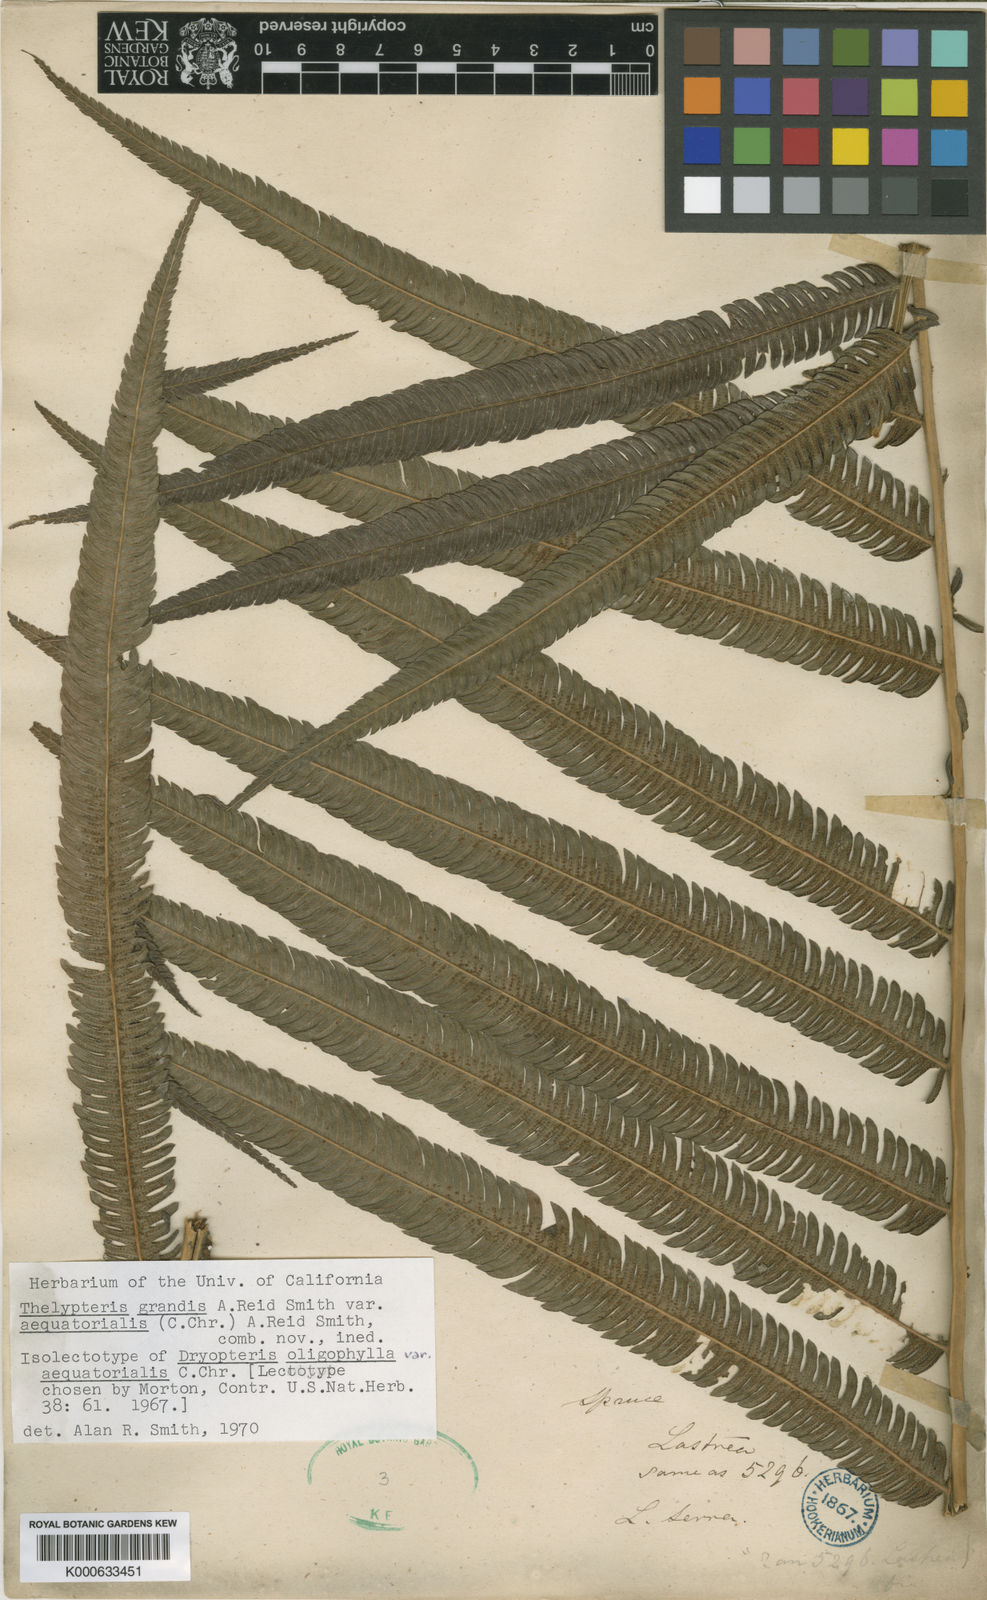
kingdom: Plantae
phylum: Tracheophyta
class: Polypodiopsida
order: Polypodiales
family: Thelypteridaceae
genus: Christella
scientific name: Christella
